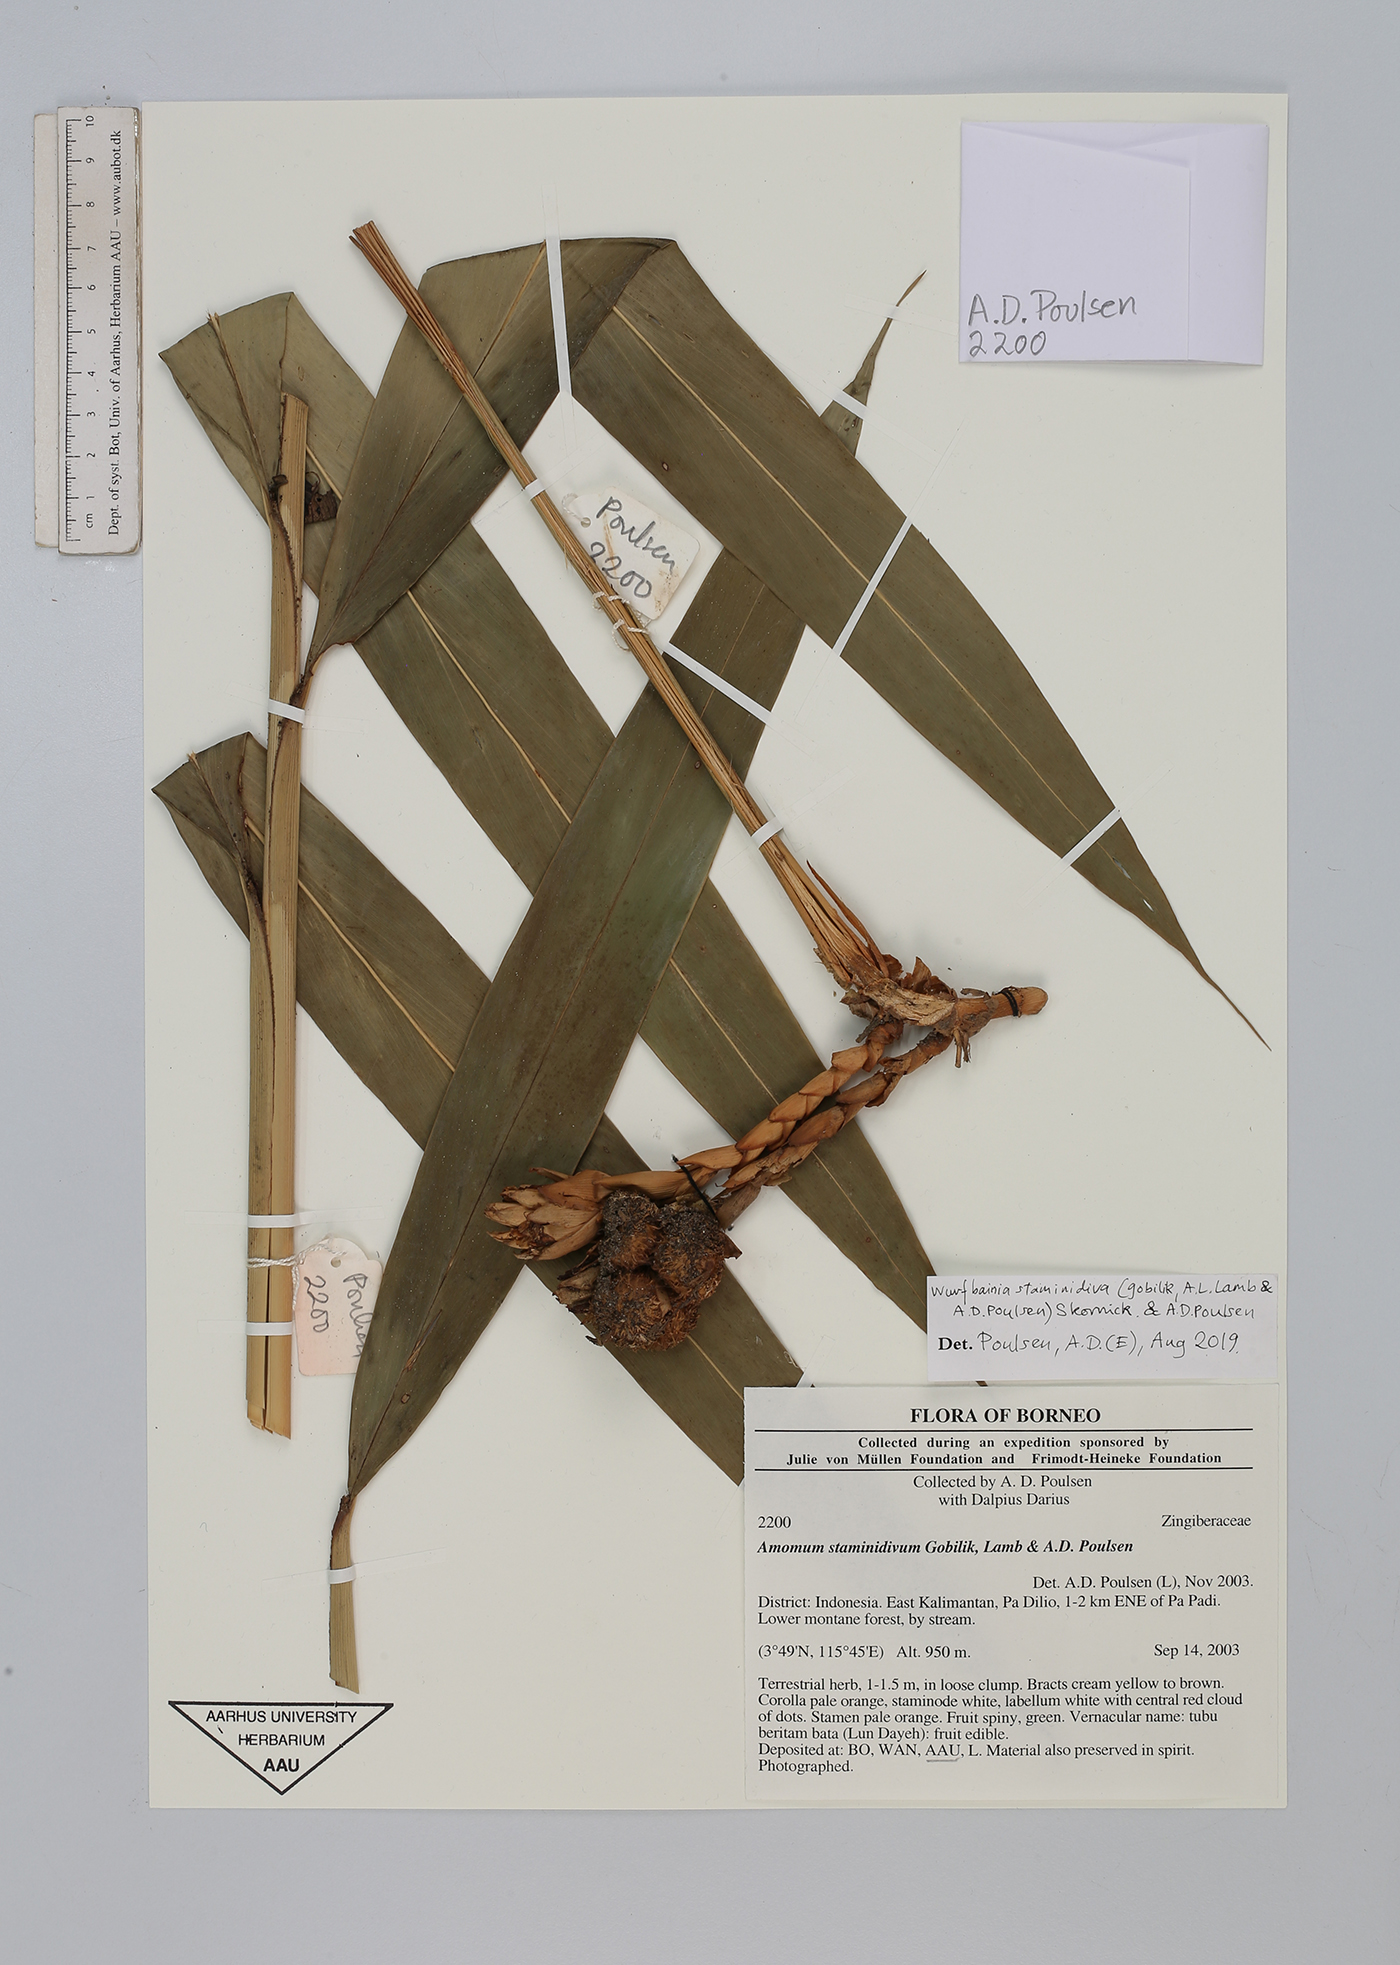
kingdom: Plantae
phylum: Tracheophyta
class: Liliopsida
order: Zingiberales
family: Zingiberaceae
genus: Wurfbainia
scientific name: Wurfbainia staminidiva
